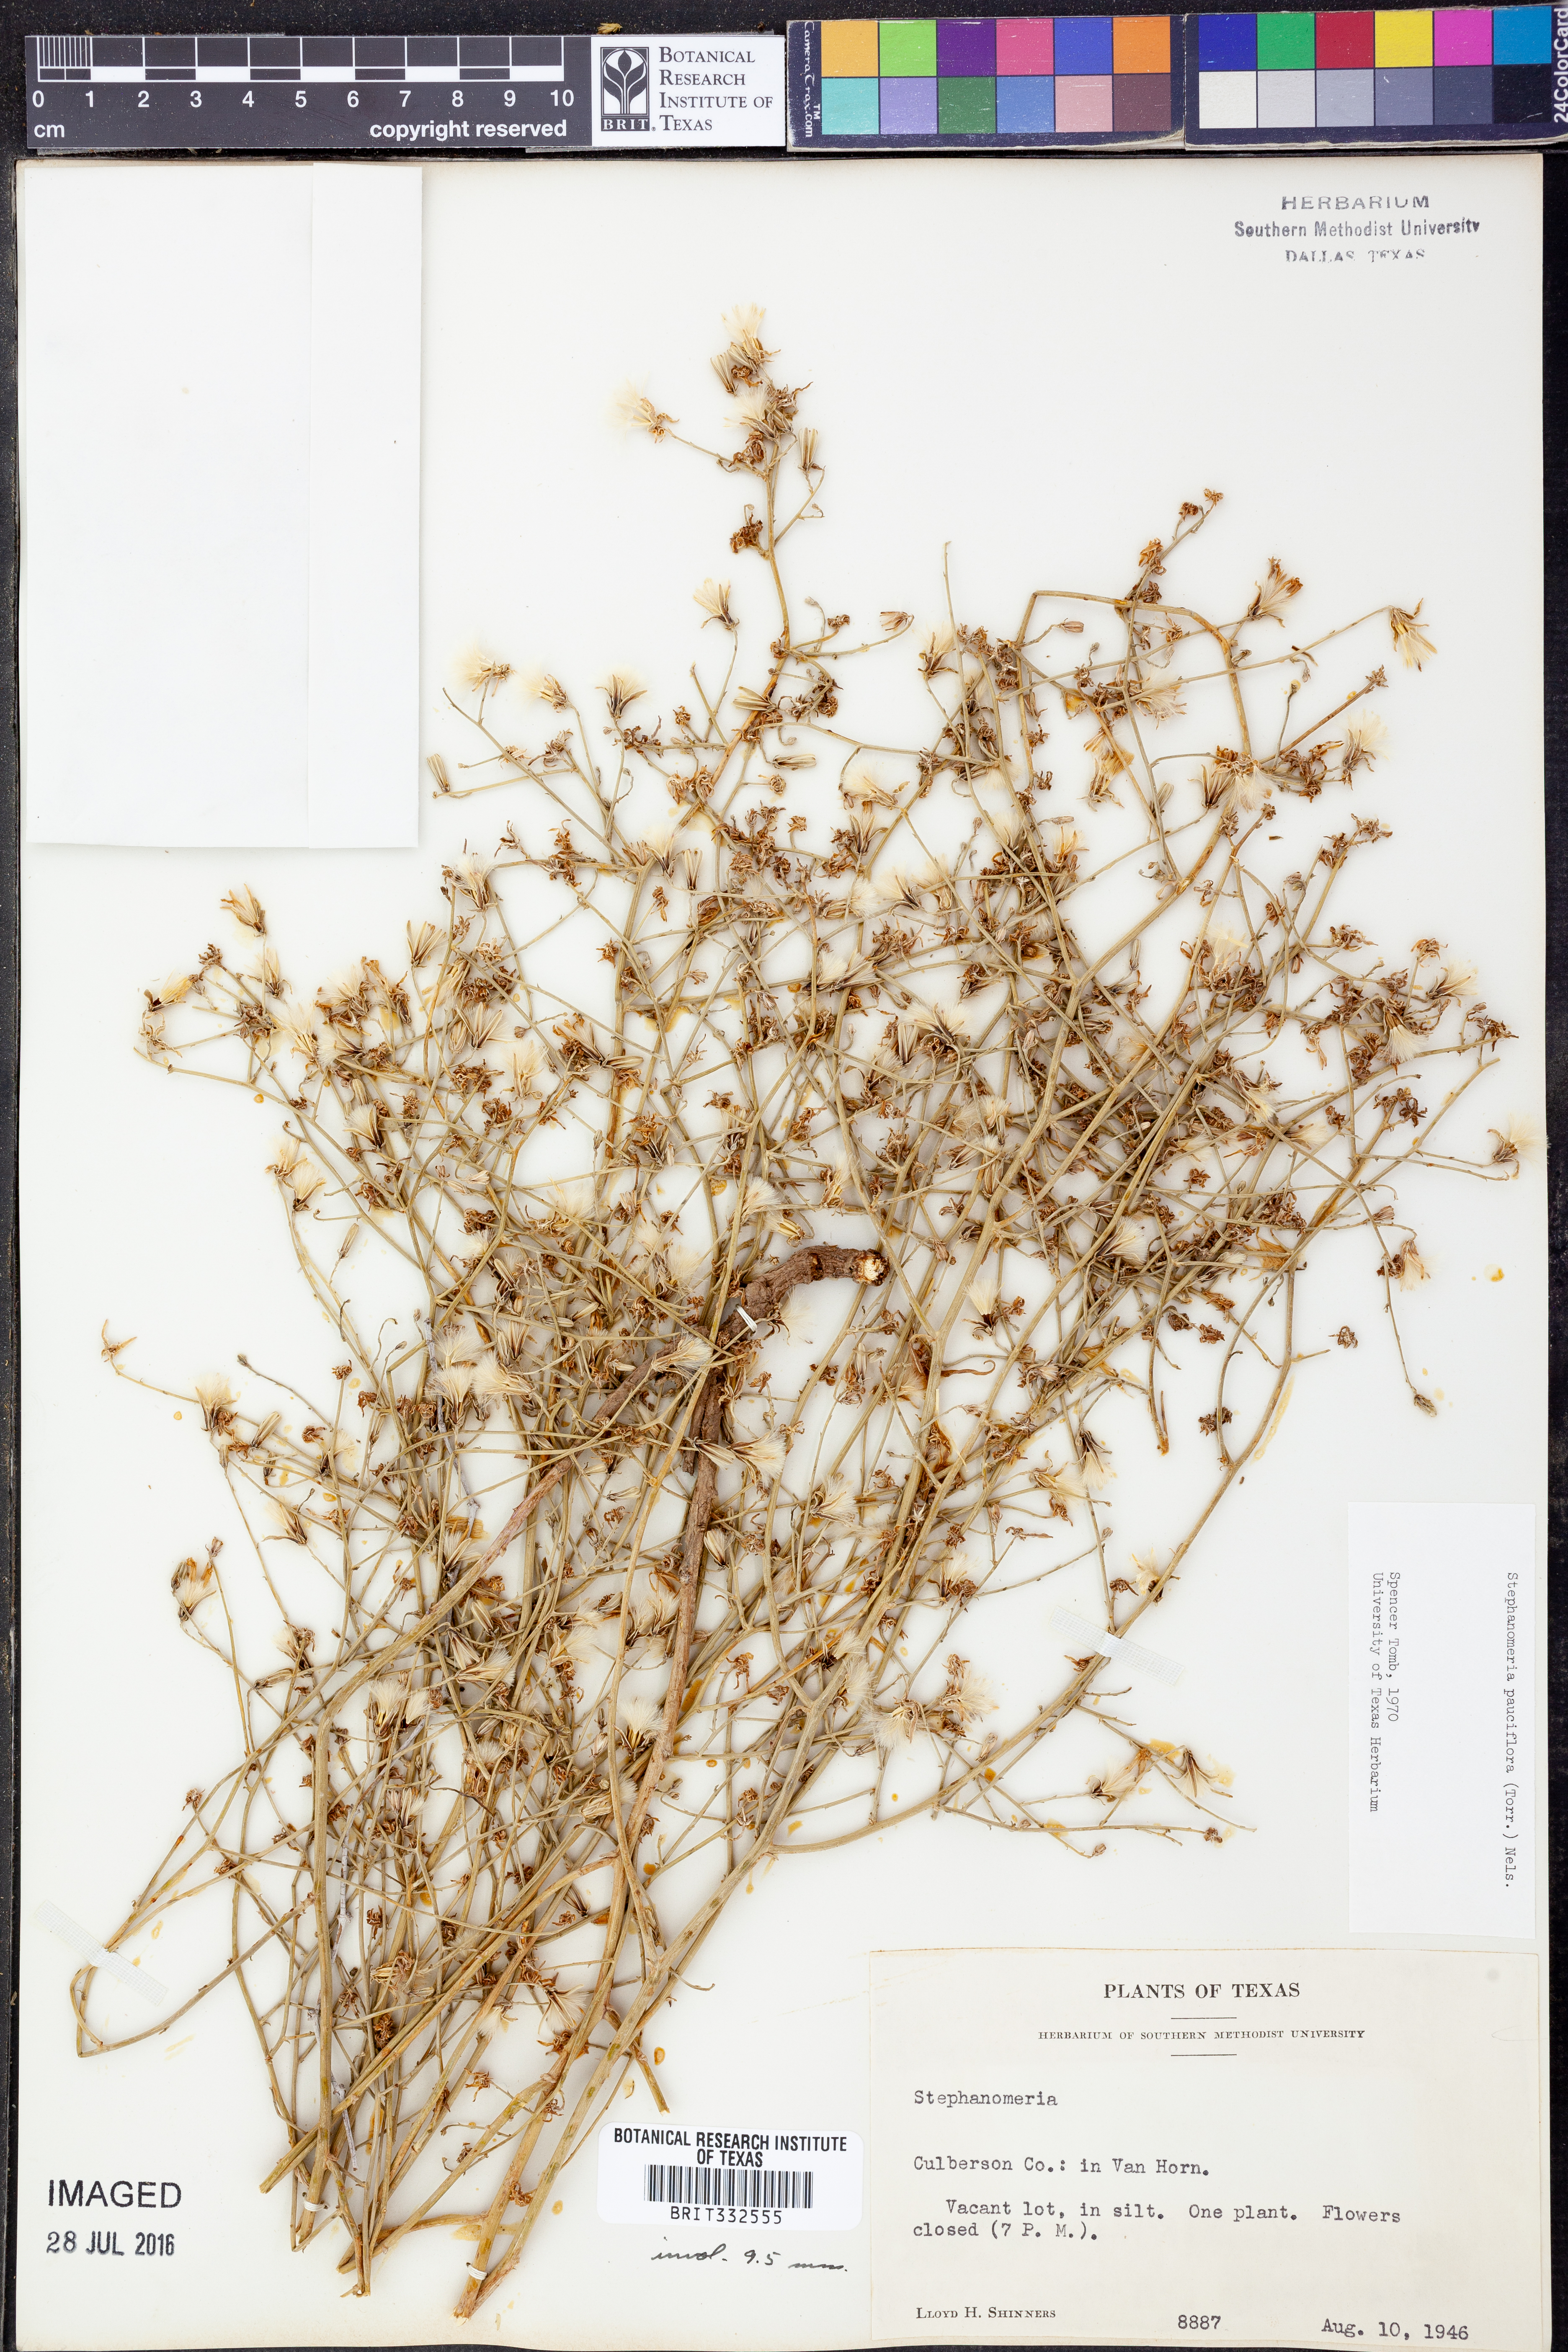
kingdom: Plantae
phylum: Tracheophyta
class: Magnoliopsida
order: Asterales
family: Asteraceae
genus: Stephanomeria
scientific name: Stephanomeria pauciflora
